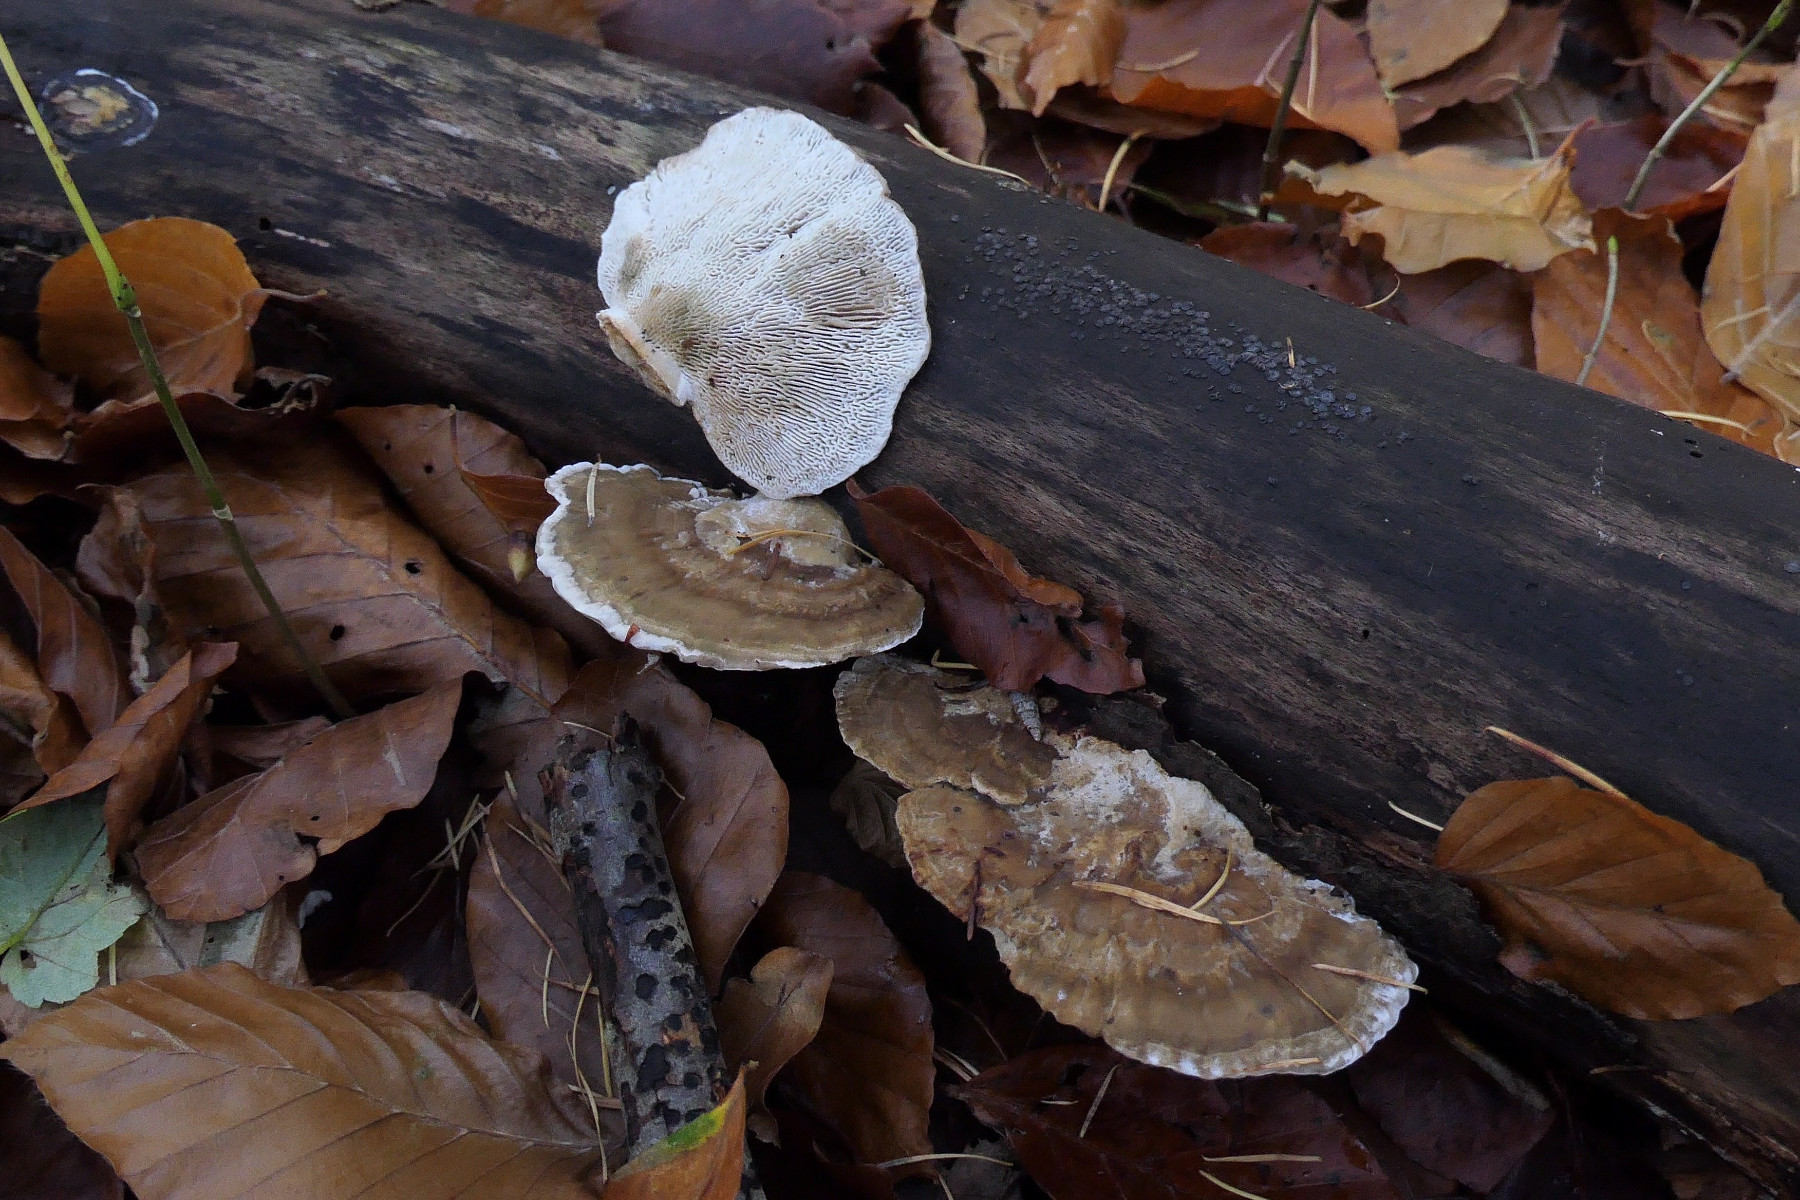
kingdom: Fungi
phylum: Basidiomycota
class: Agaricomycetes
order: Polyporales
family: Polyporaceae
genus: Daedaleopsis
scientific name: Daedaleopsis confragosa
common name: rødmende læderporesvamp
